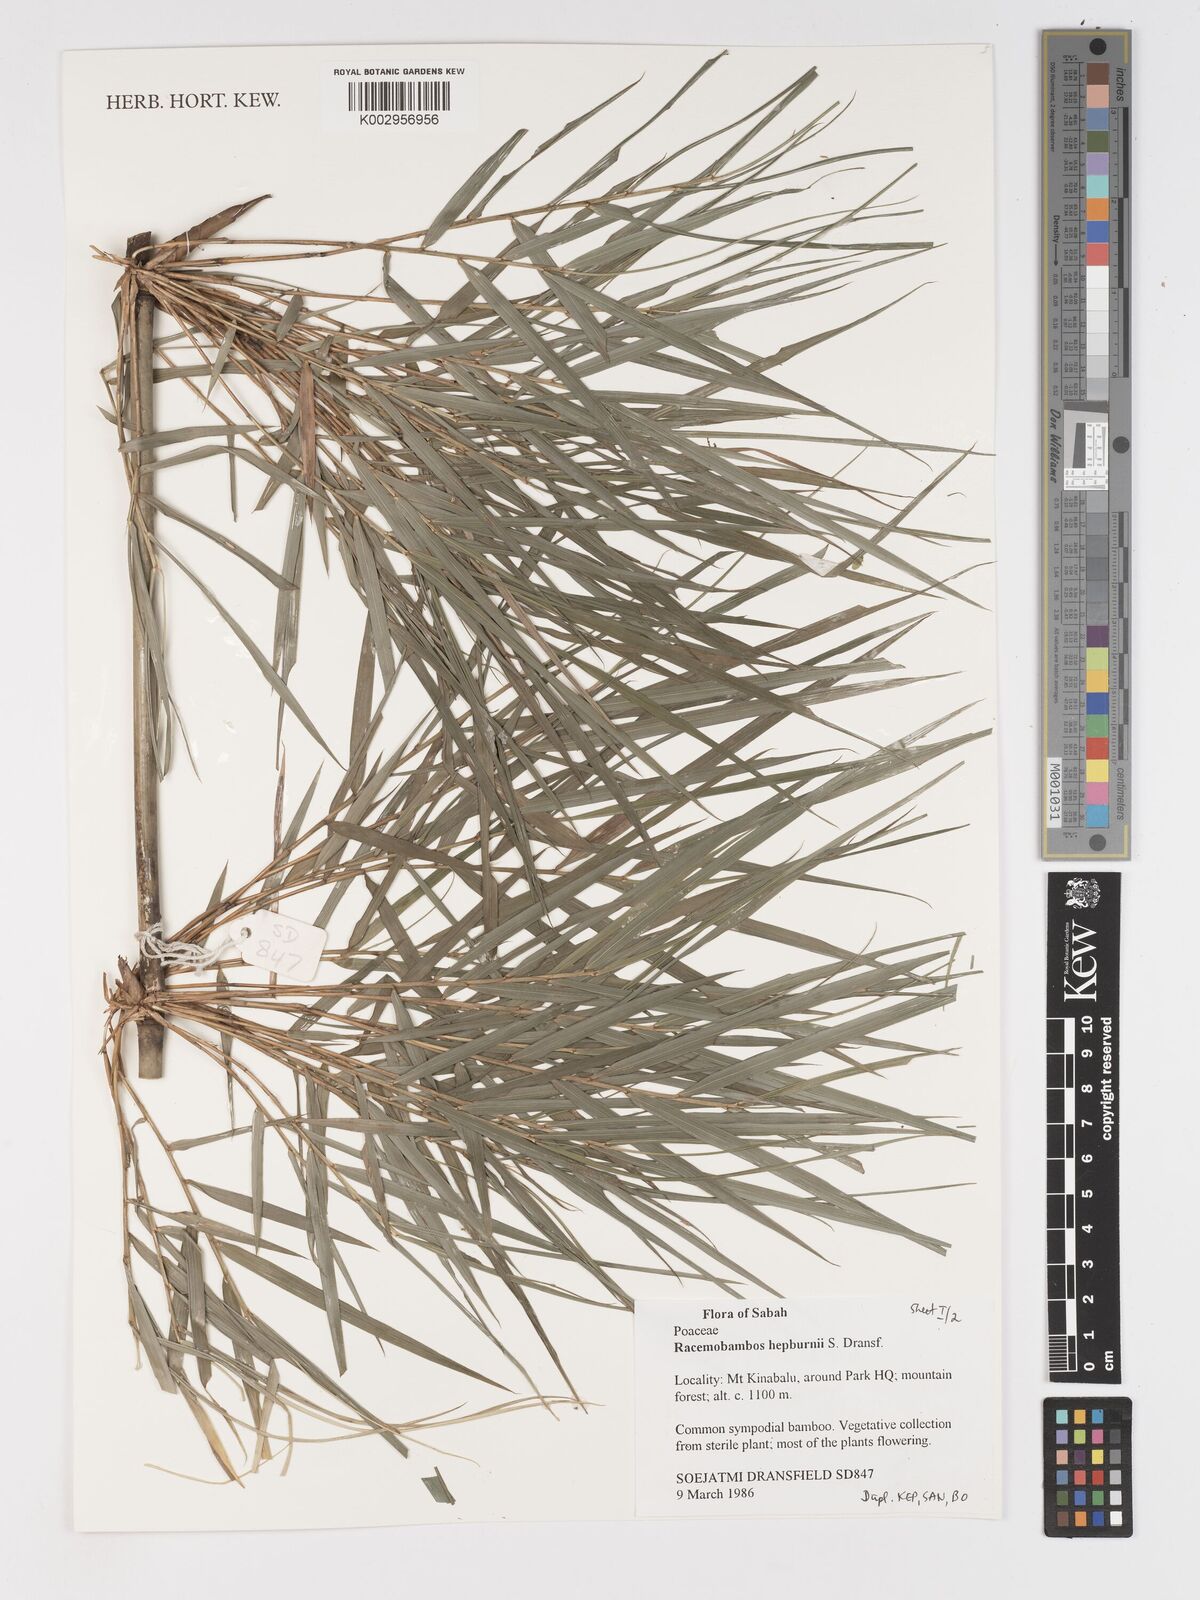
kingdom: Plantae
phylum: Tracheophyta
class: Liliopsida
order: Poales
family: Poaceae
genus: Racemobambos
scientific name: Racemobambos hepburnii
